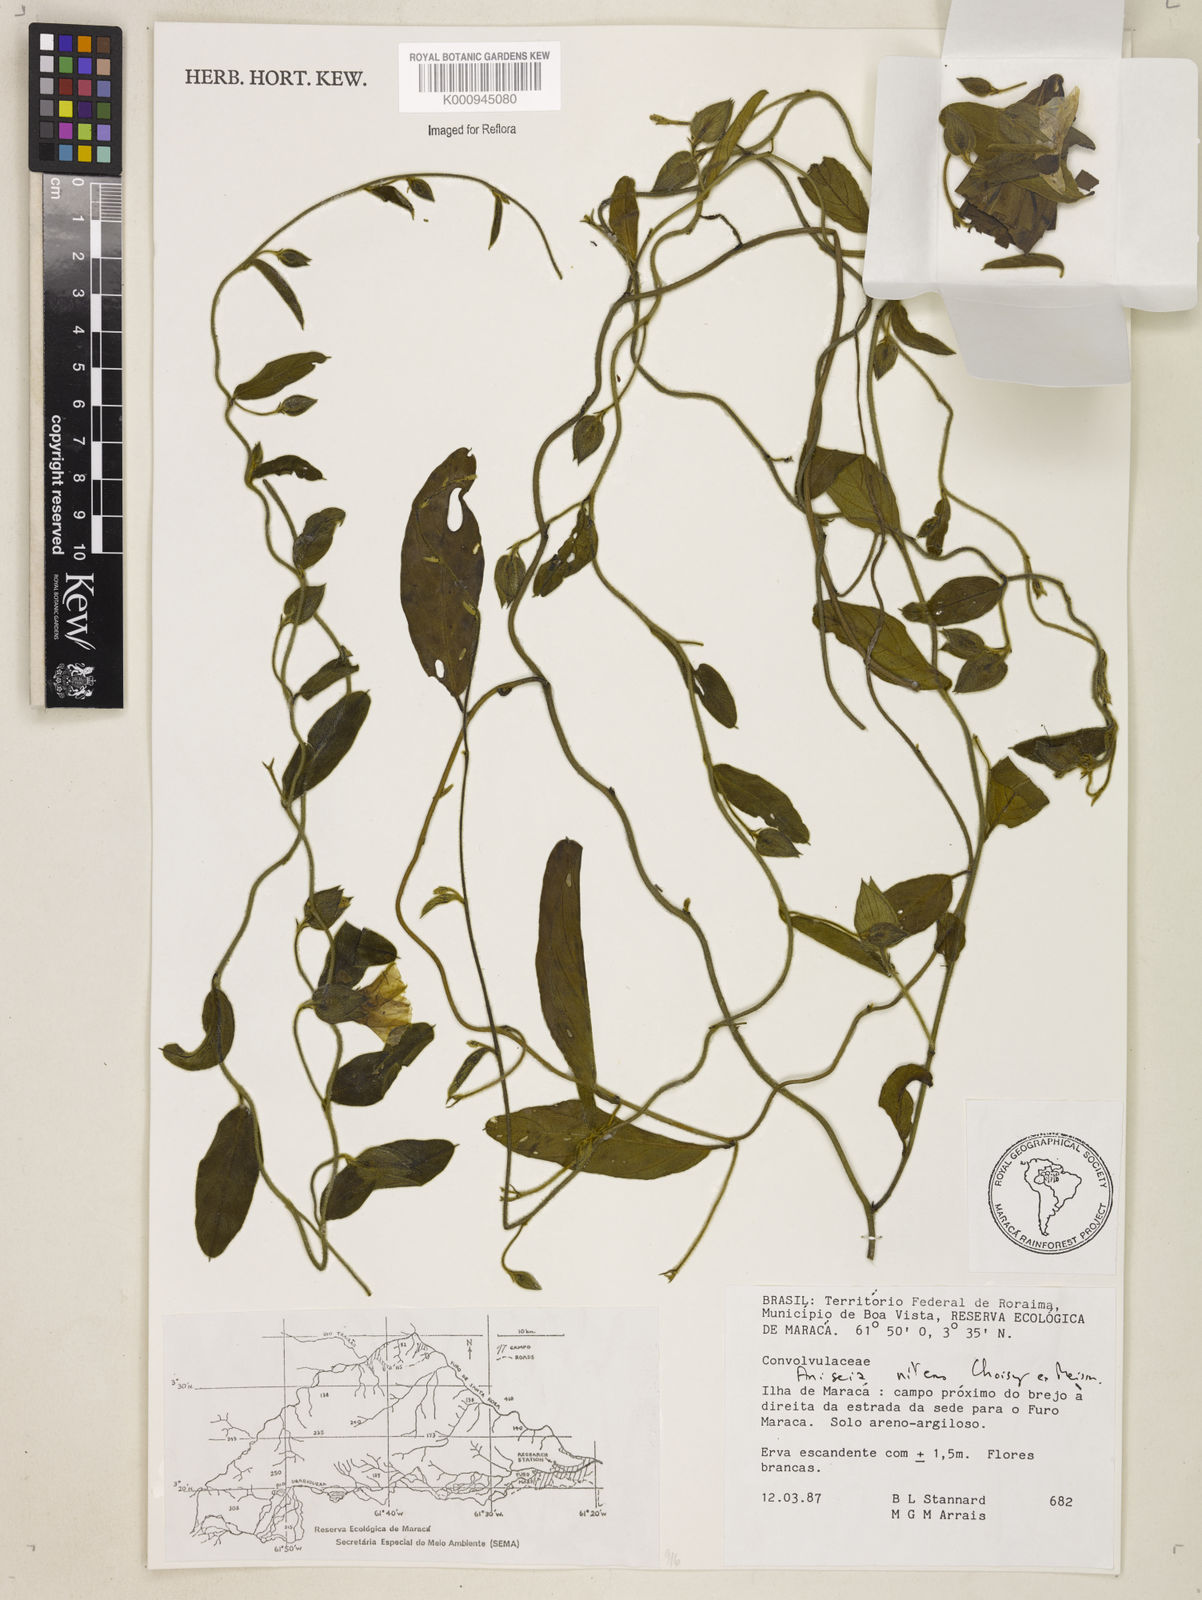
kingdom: Plantae
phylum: Tracheophyta
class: Magnoliopsida
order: Solanales
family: Convolvulaceae
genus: Aniseia
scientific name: Aniseia martinicensis
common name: Kulayadambu
